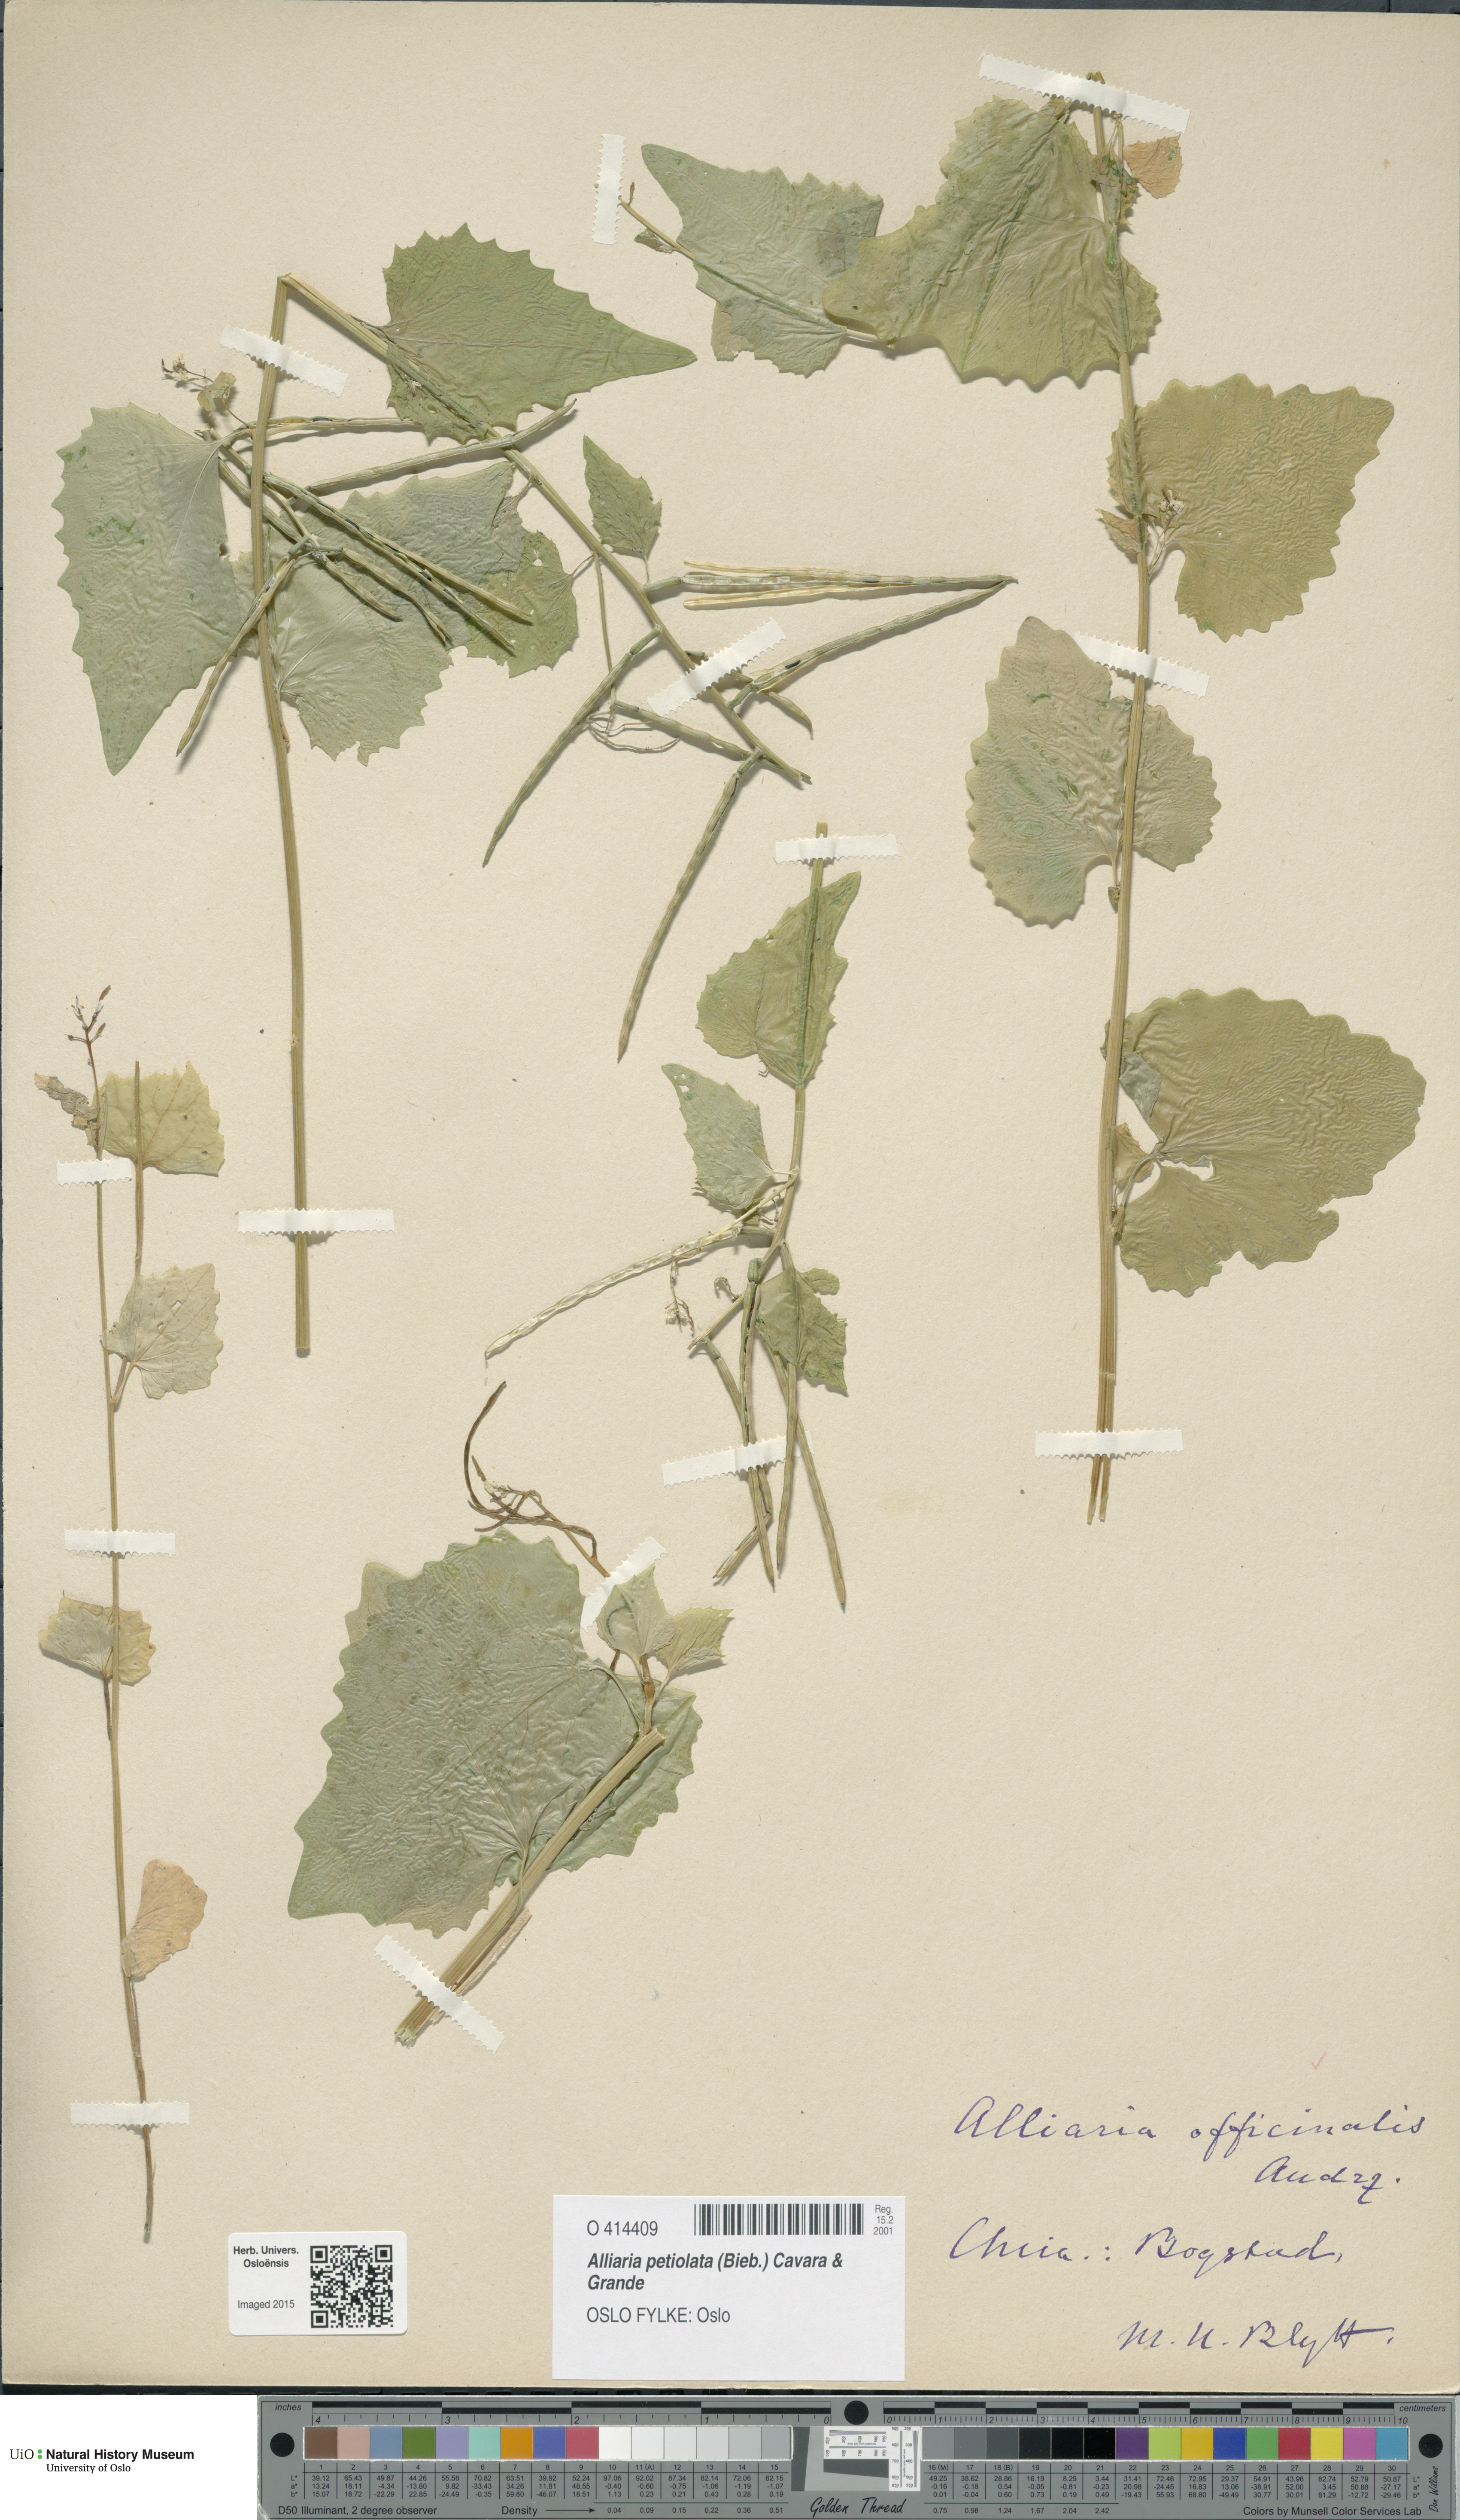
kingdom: Plantae
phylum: Tracheophyta
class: Magnoliopsida
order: Brassicales
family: Brassicaceae
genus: Alliaria
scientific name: Alliaria petiolata
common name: Garlic mustard
